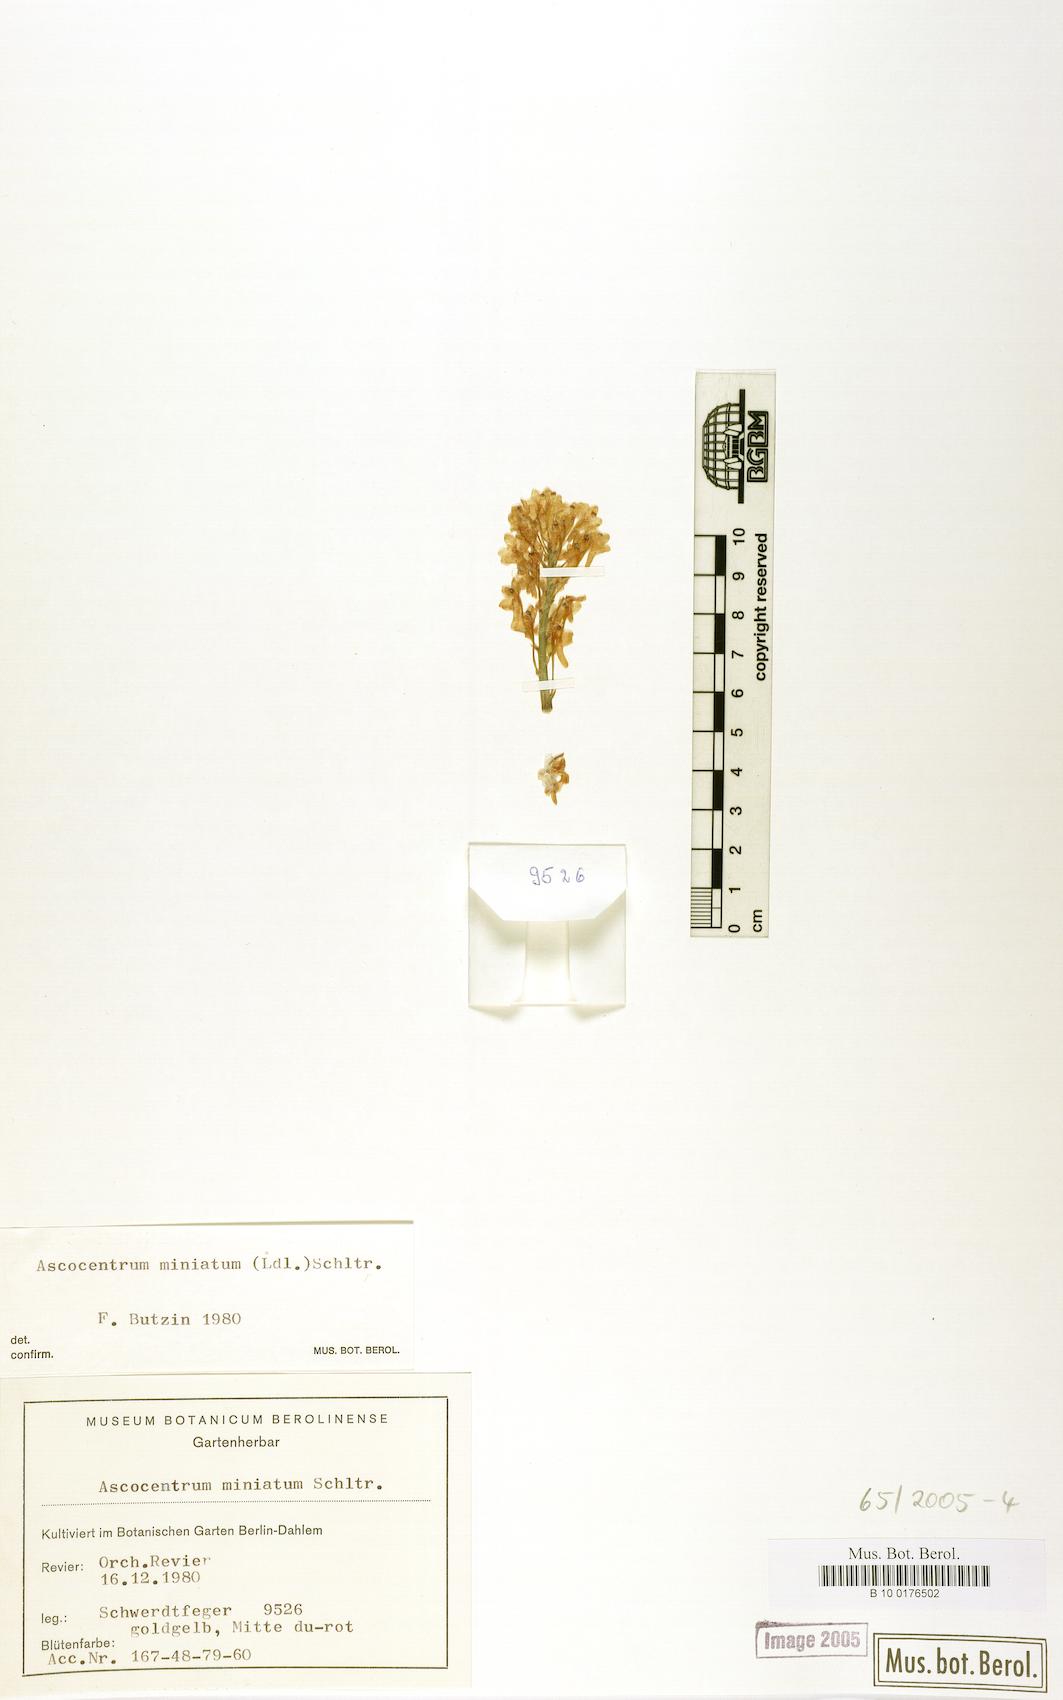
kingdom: Plantae
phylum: Tracheophyta
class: Liliopsida
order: Asparagales
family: Orchidaceae
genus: Vanda
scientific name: Vanda miniata
